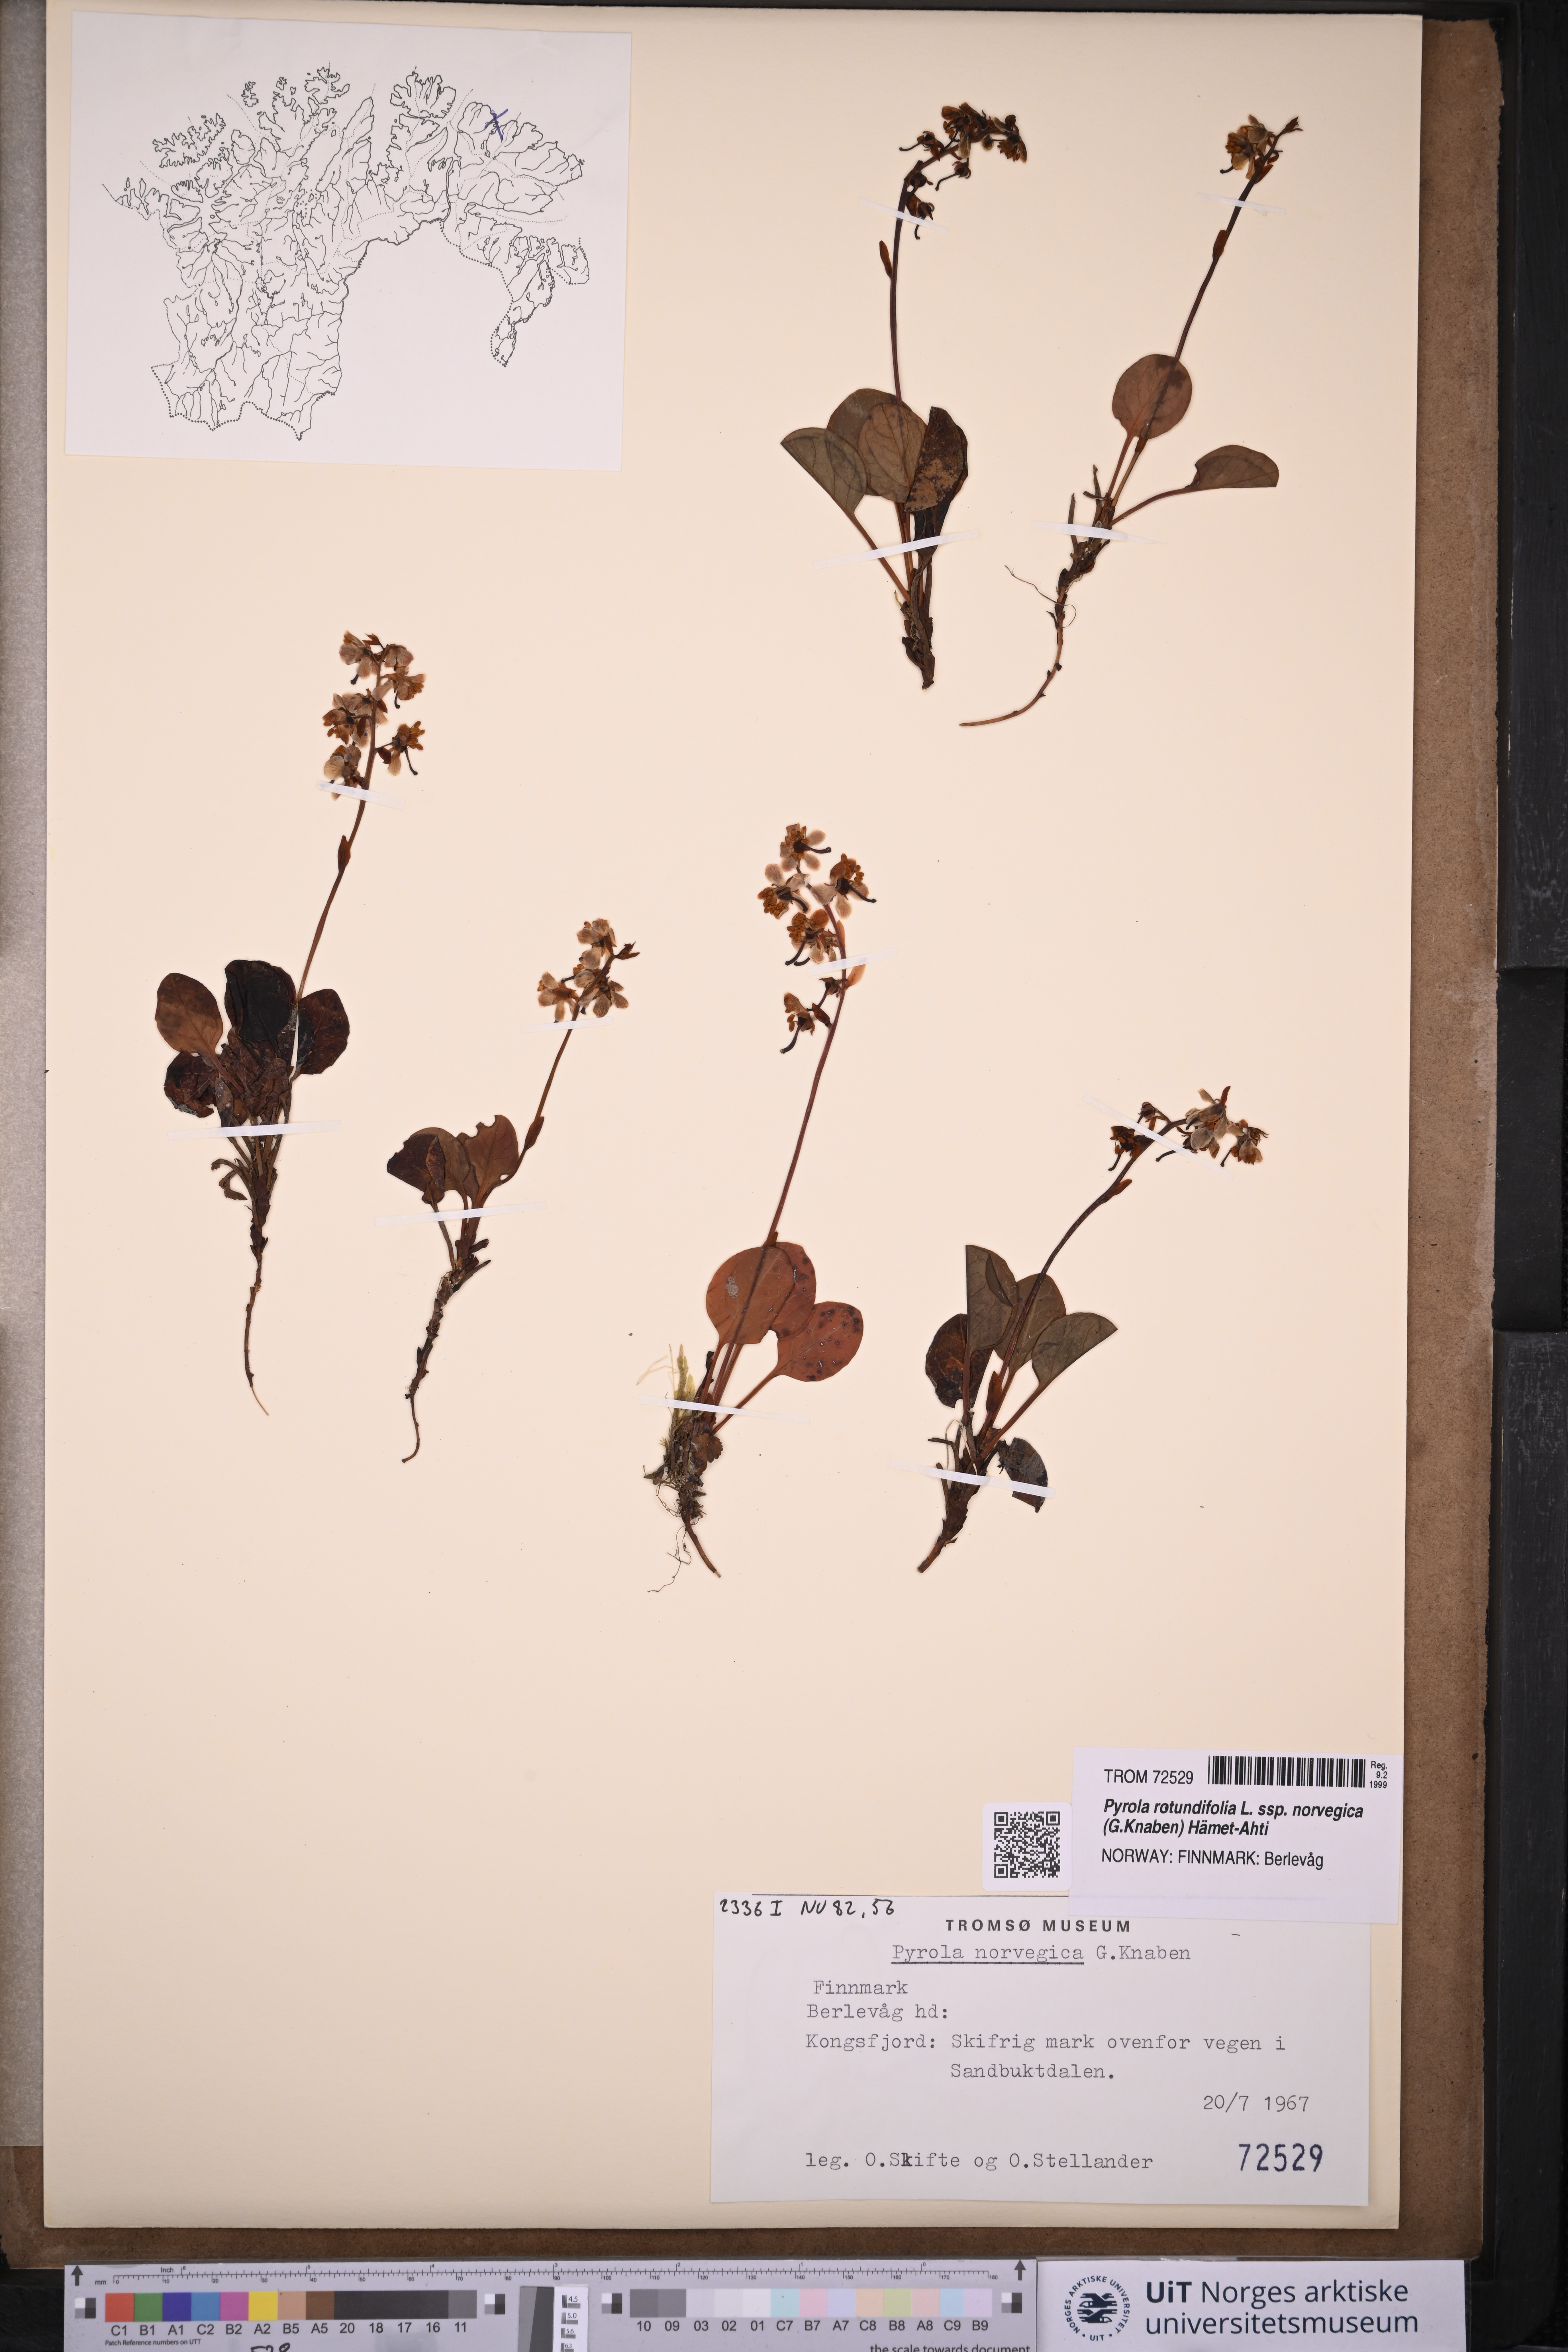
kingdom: Plantae
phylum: Tracheophyta
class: Magnoliopsida
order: Ericales
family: Ericaceae
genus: Pyrola
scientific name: Pyrola rotundifolia
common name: Round-leaved wintergreen
